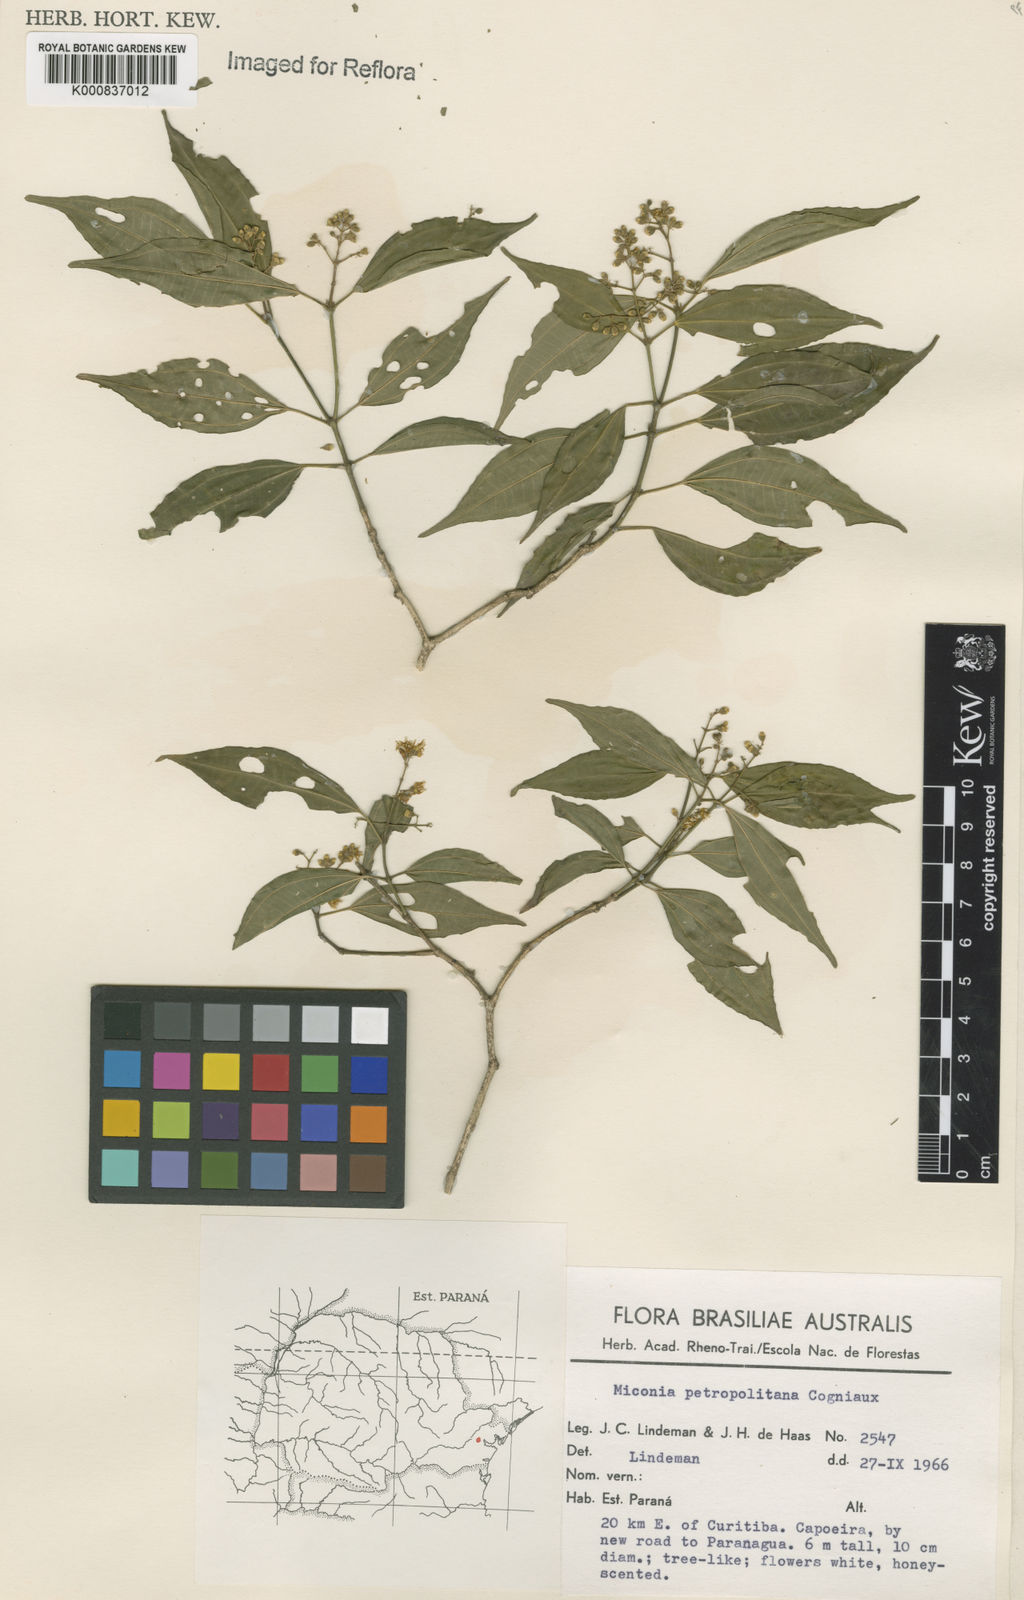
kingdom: Plantae
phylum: Tracheophyta
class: Magnoliopsida
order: Myrtales
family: Melastomataceae
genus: Miconia
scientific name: Miconia petropolitana
